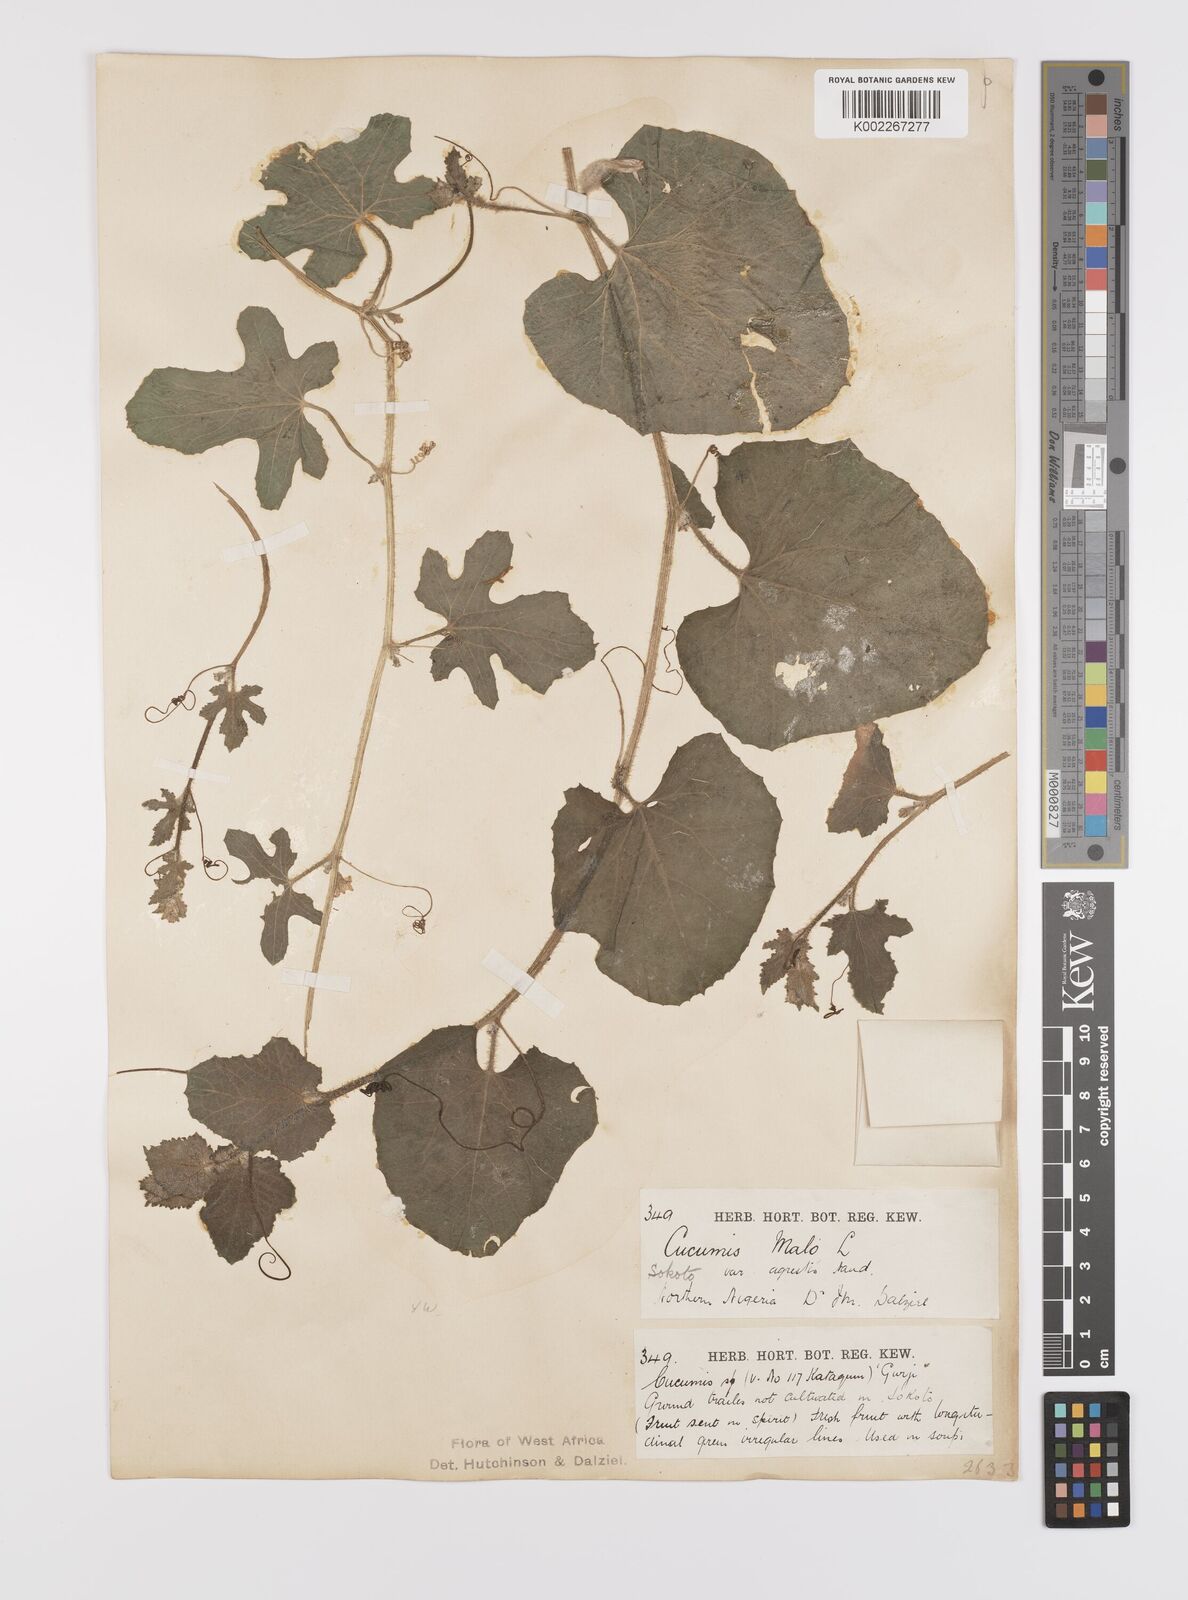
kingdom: Plantae
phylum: Tracheophyta
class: Magnoliopsida
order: Cucurbitales
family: Cucurbitaceae
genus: Cucumis
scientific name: Cucumis melo
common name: Melon
